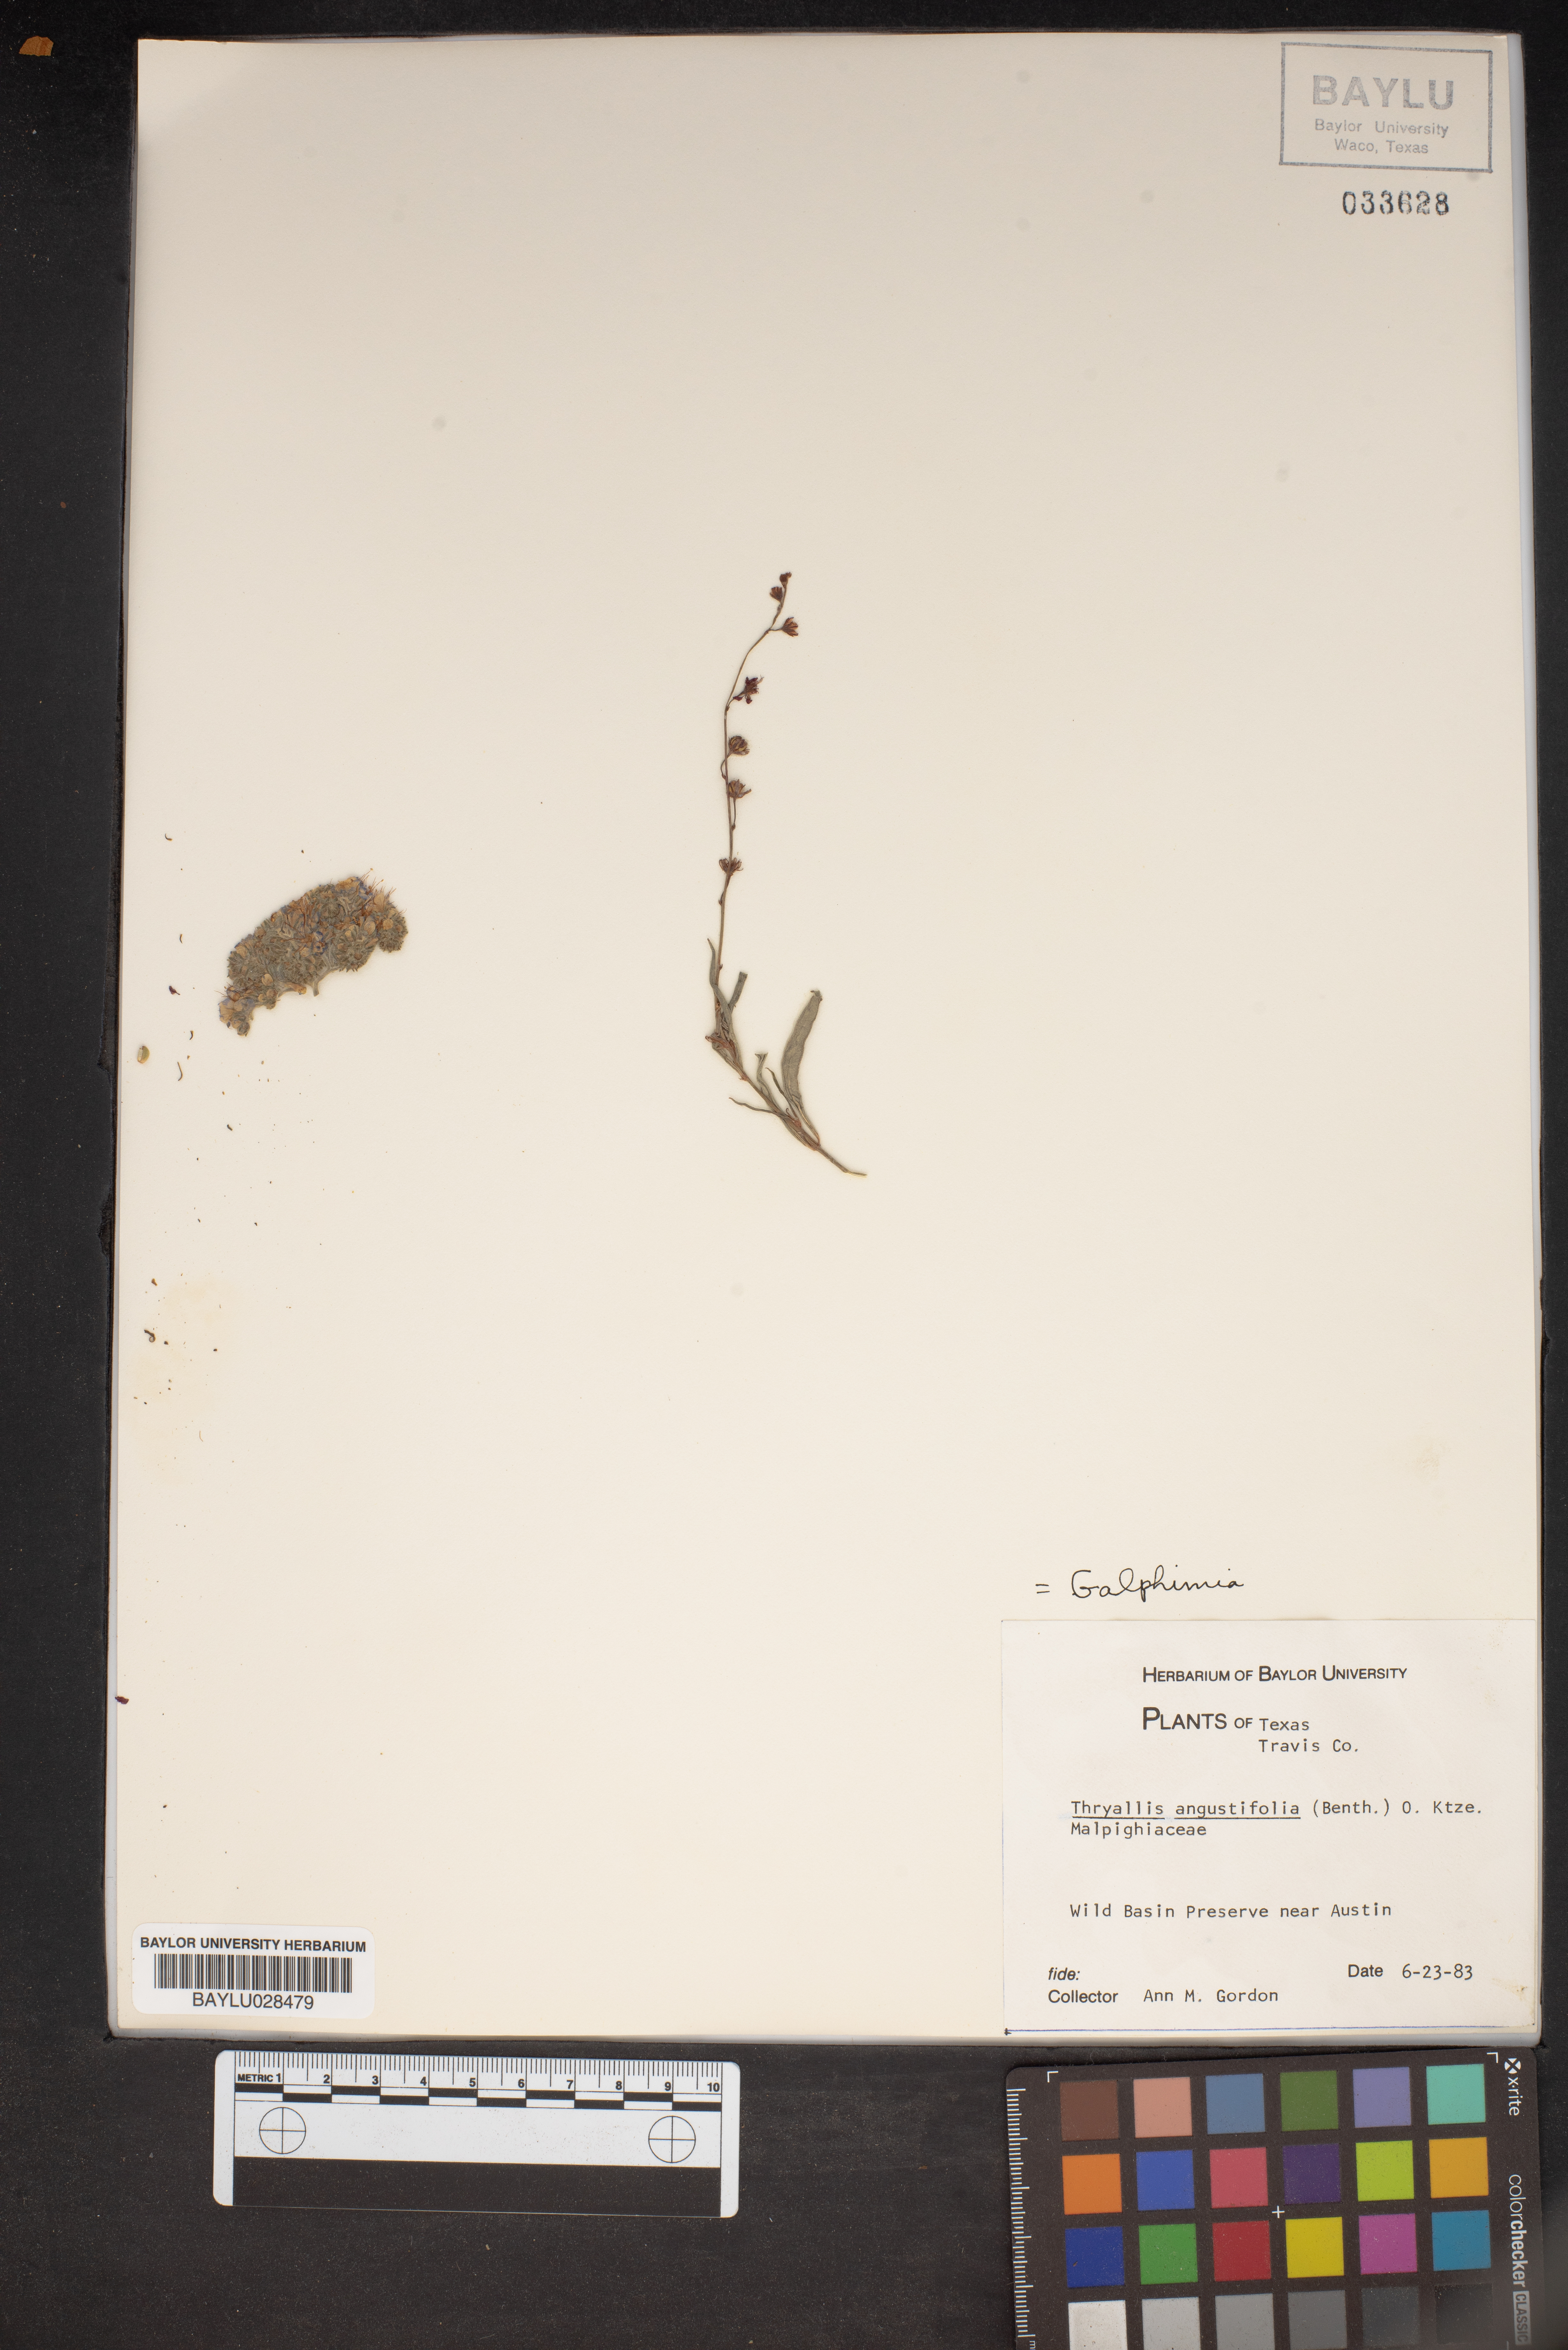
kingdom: Plantae
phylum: Tracheophyta
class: Magnoliopsida
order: Malpighiales
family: Malpighiaceae
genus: Galphimia
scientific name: Galphimia angustifolia
